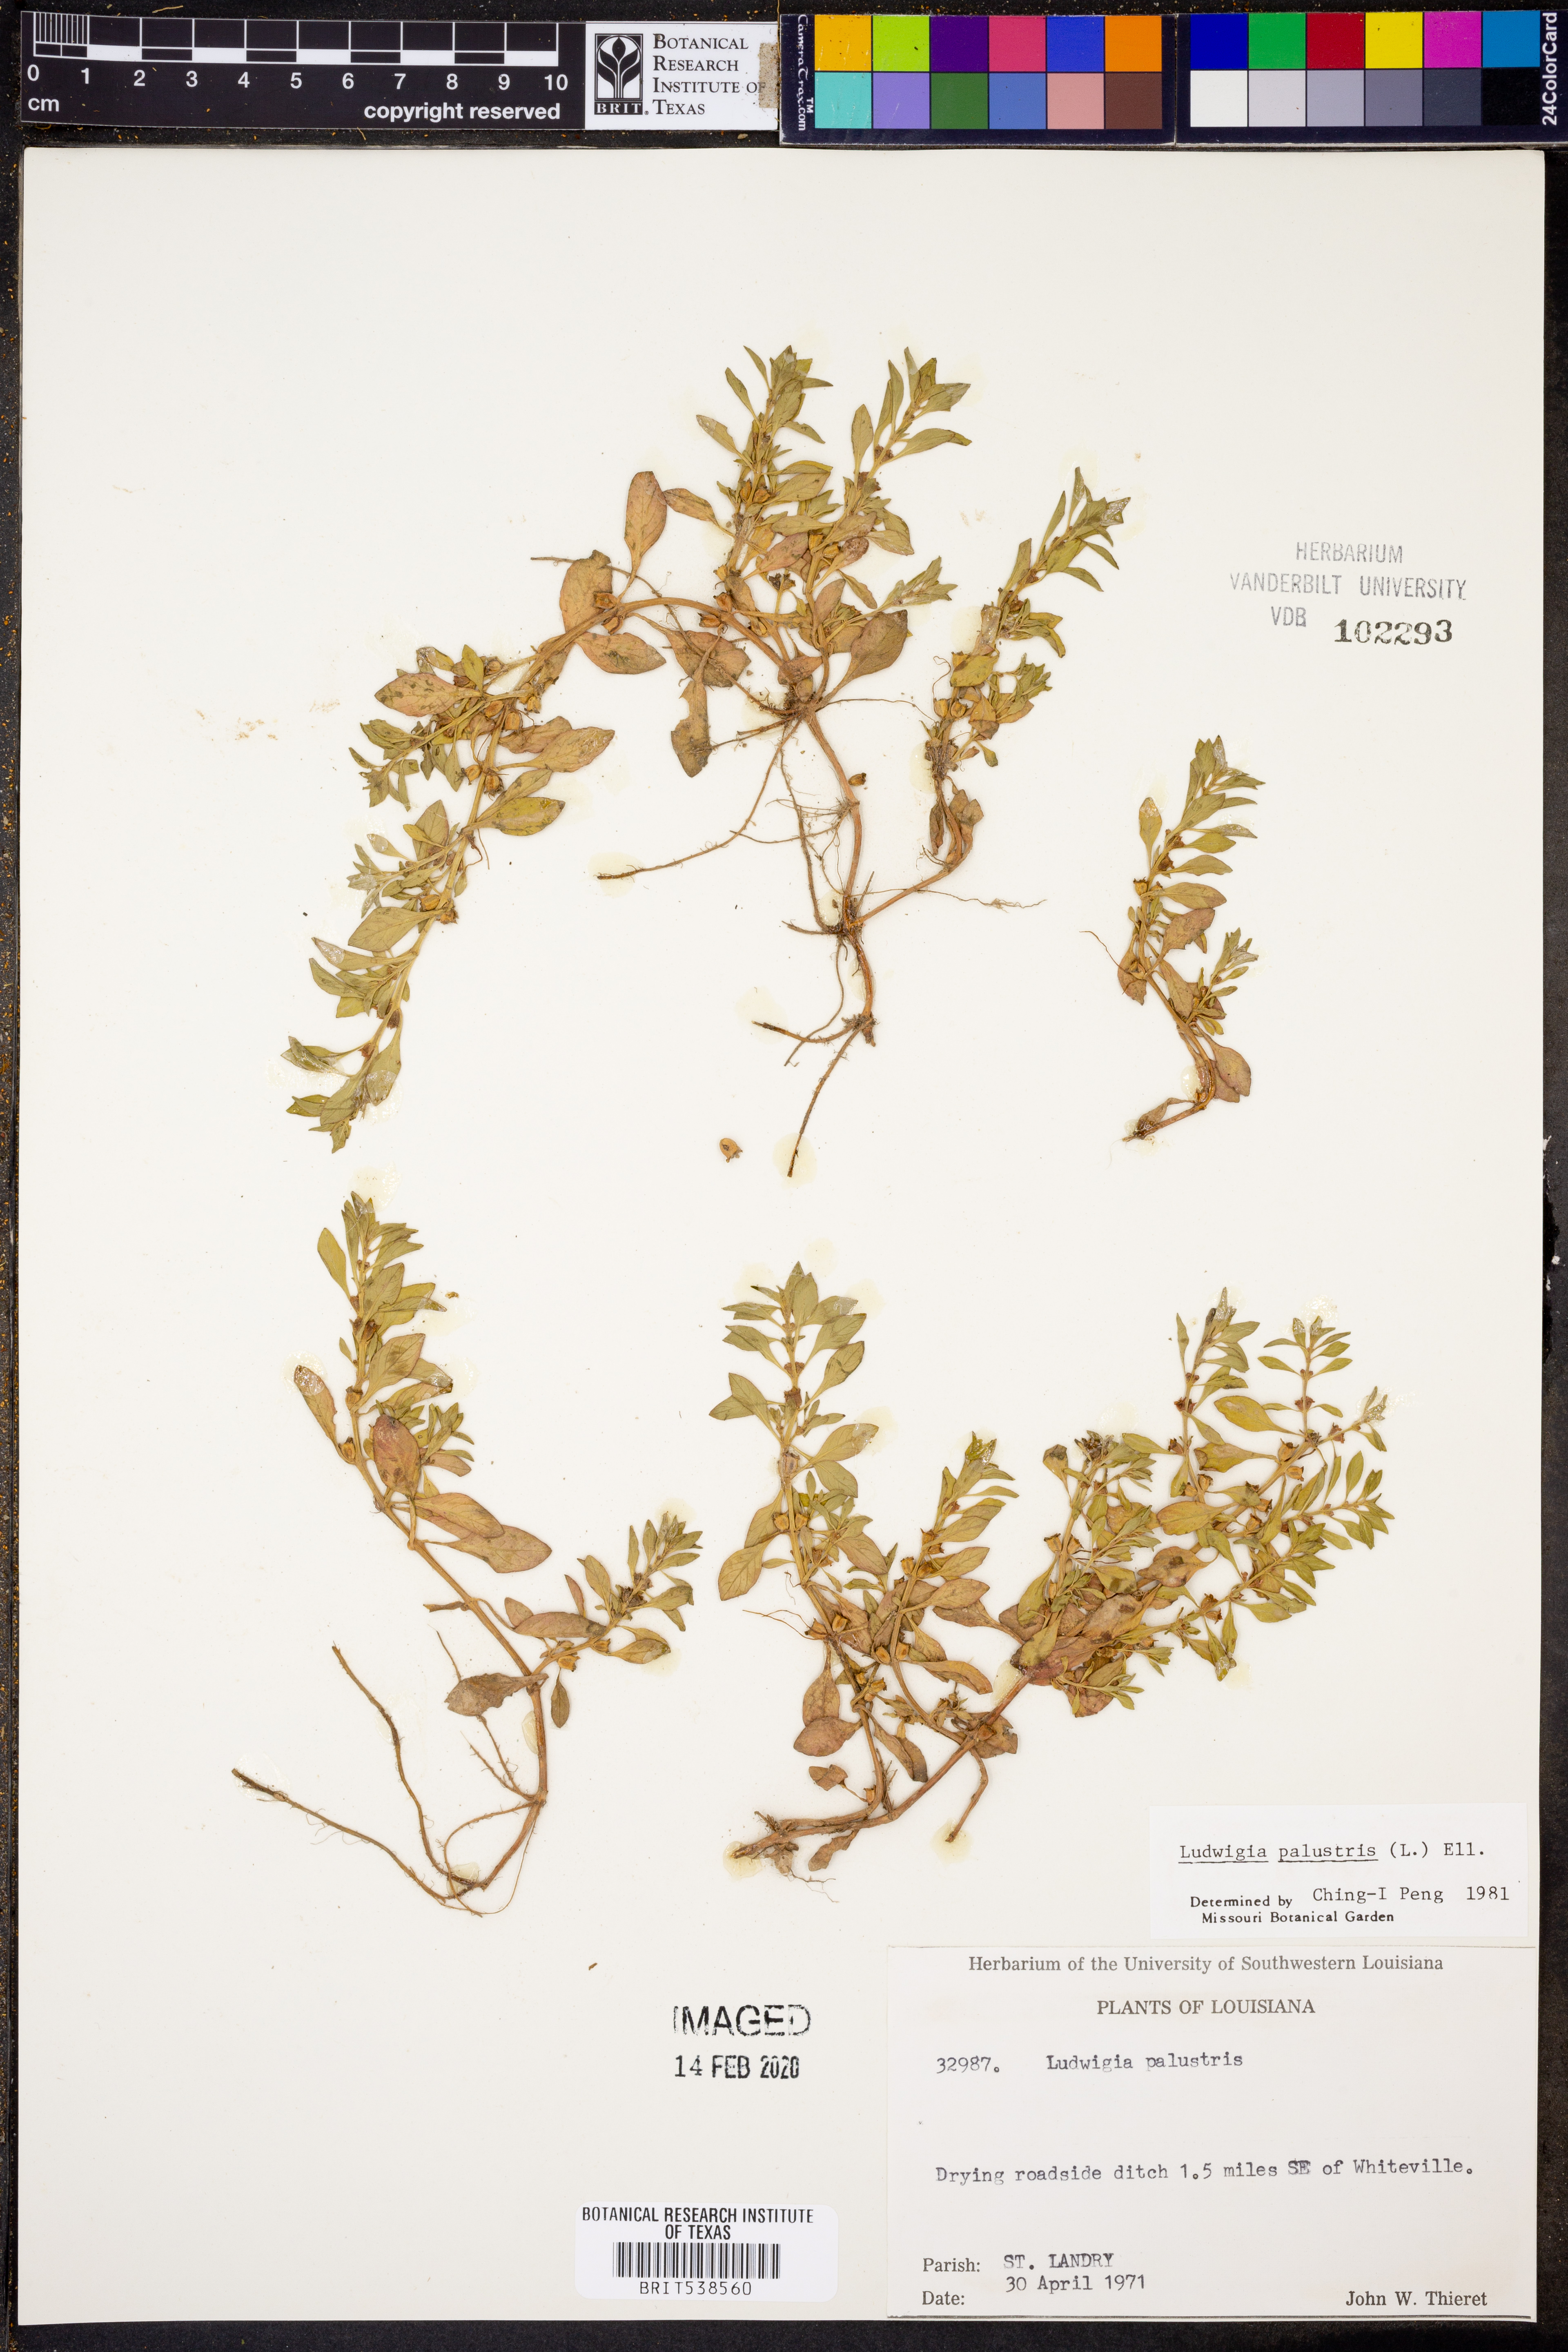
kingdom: Plantae
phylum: Tracheophyta
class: Magnoliopsida
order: Myrtales
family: Onagraceae
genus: Ludwigia
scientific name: Ludwigia palustris
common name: Hampshire-purslane
